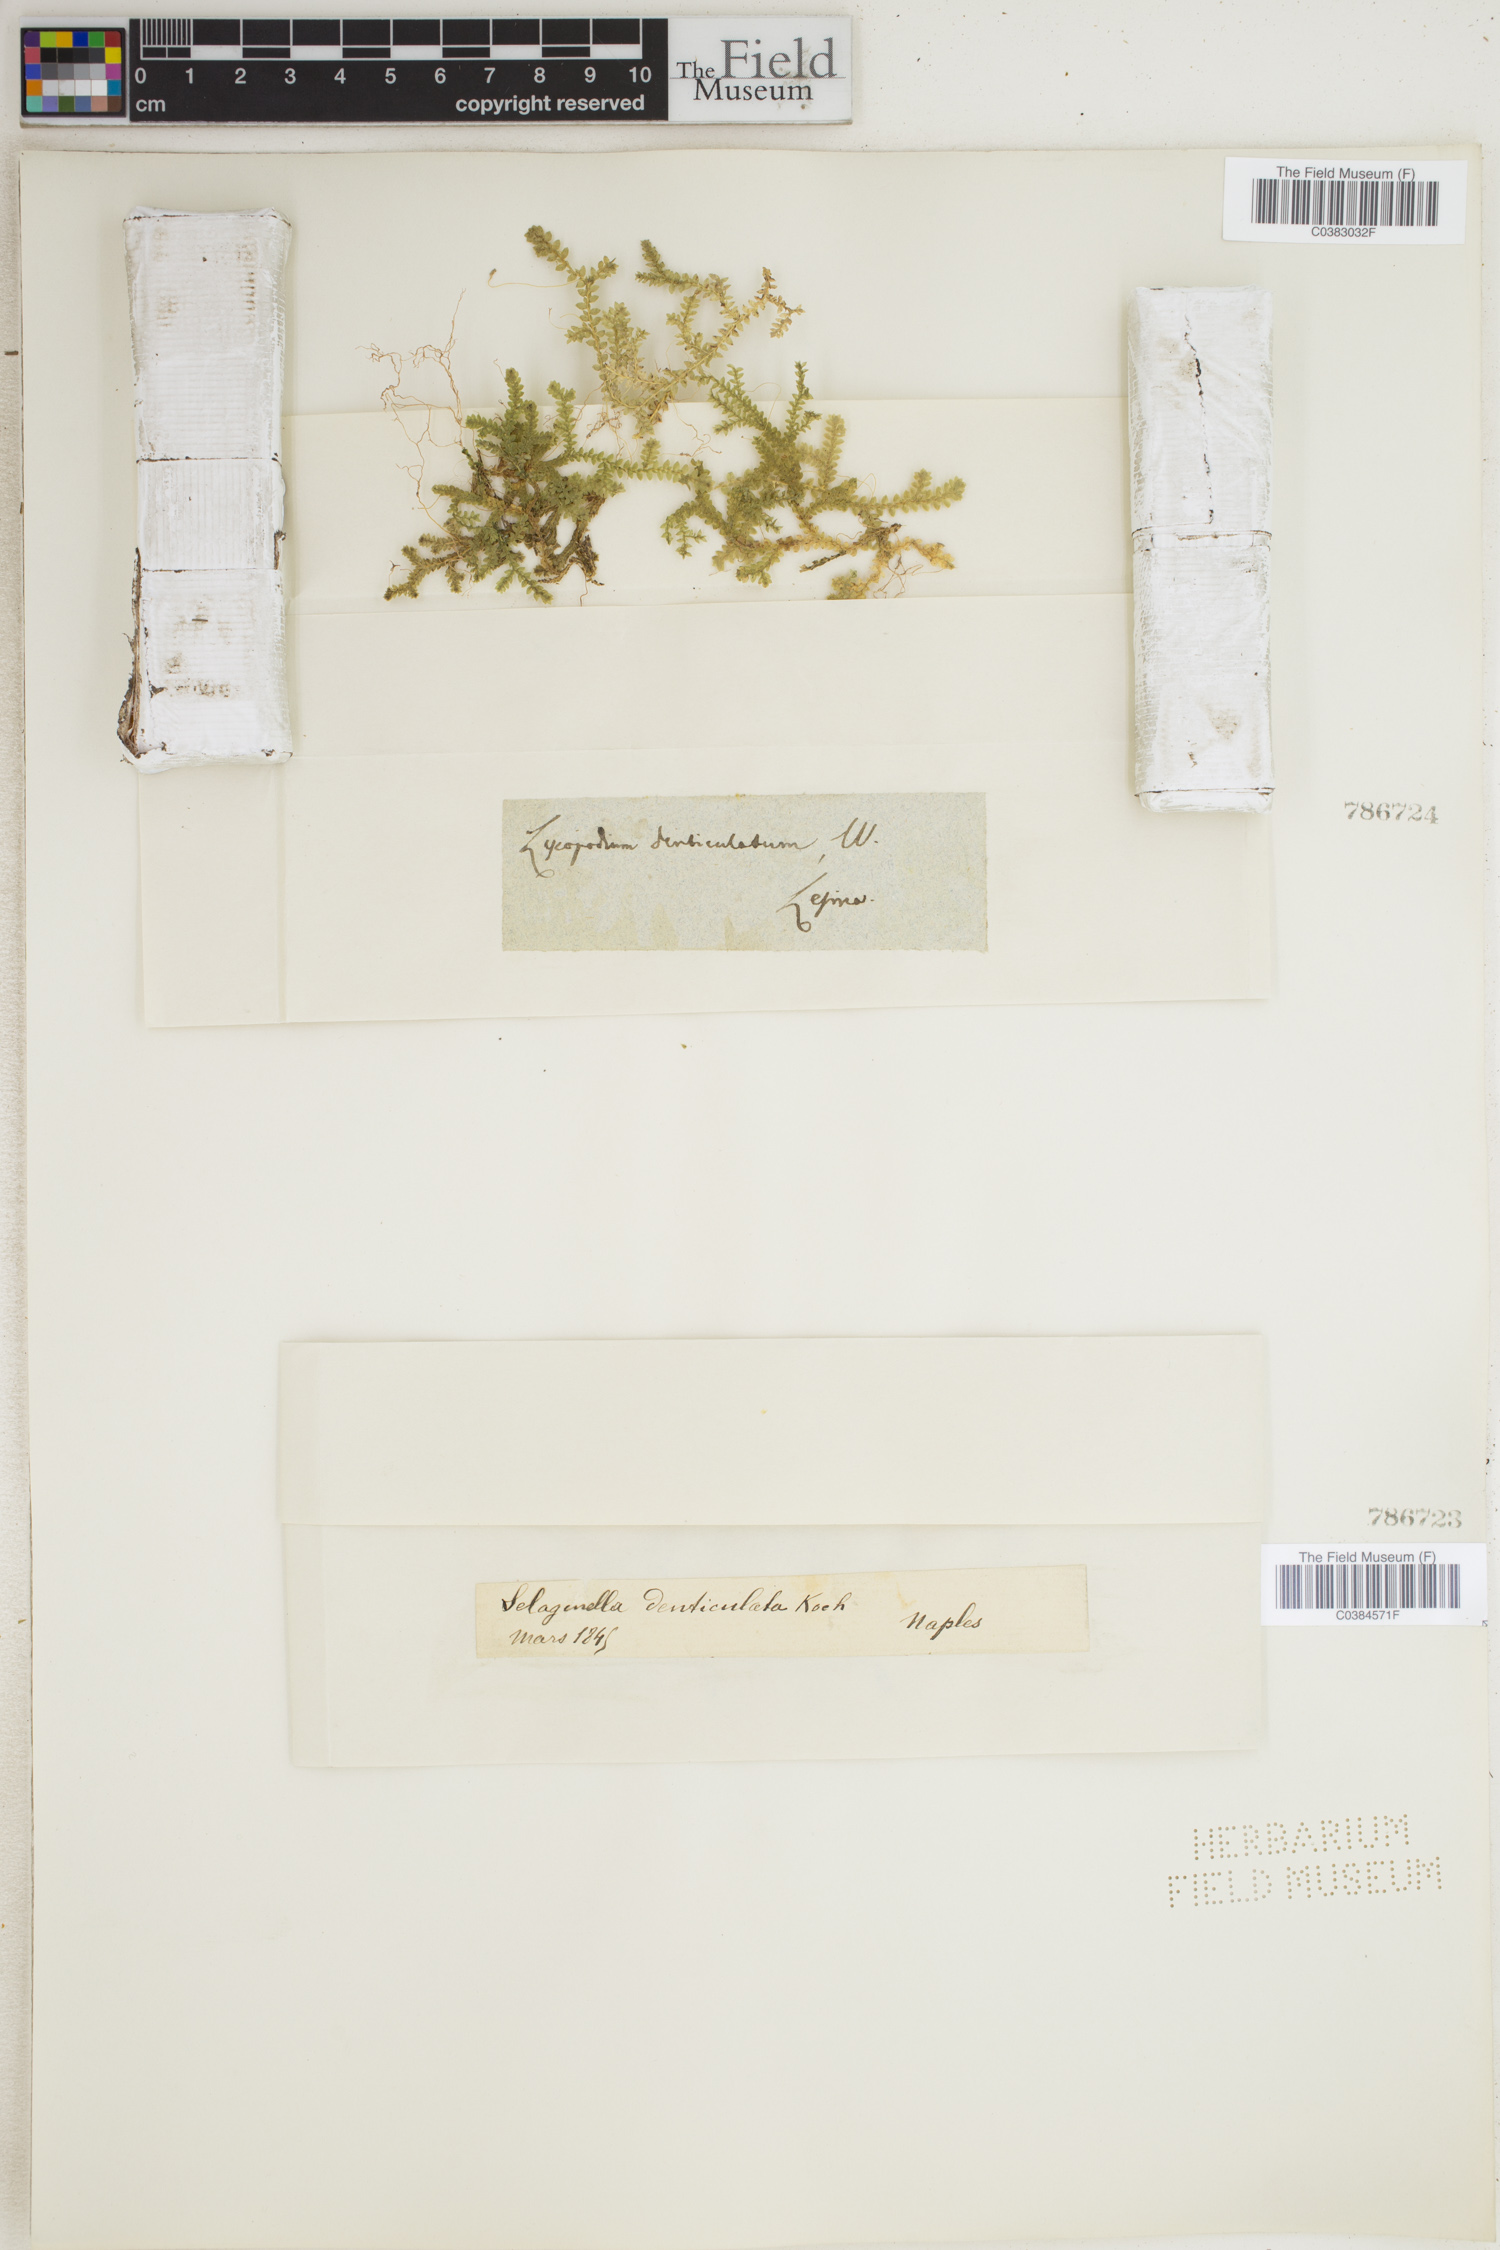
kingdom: Plantae
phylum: Tracheophyta
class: Lycopodiopsida
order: Selaginellales
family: Selaginellaceae
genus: Selaginella
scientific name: Selaginella denticulata
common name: Toothed-leaved clubmoss
